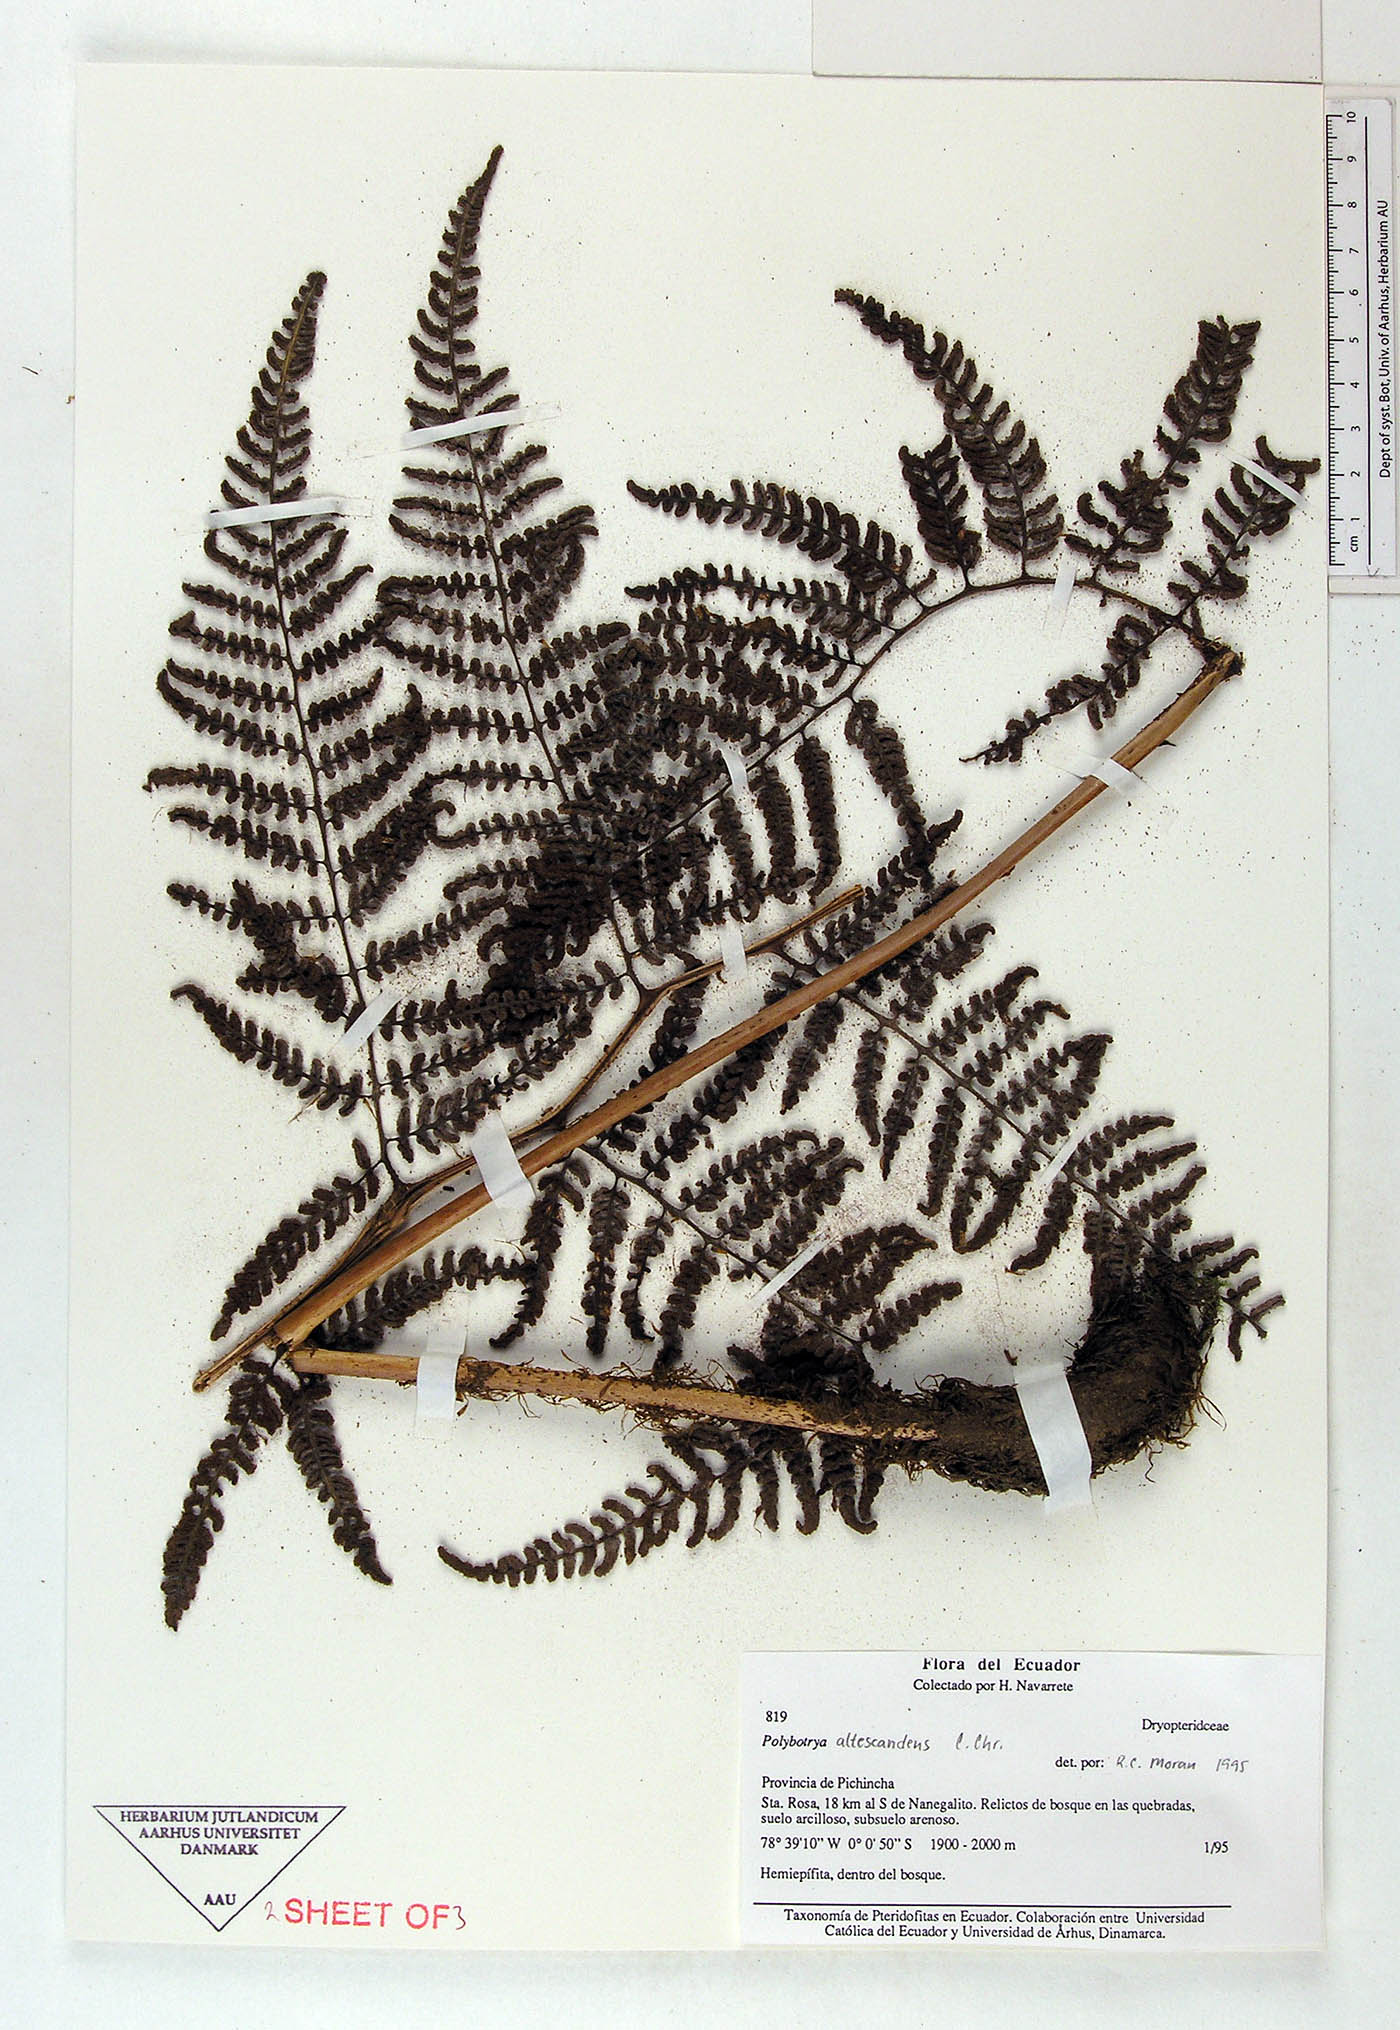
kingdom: Plantae
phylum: Tracheophyta
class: Polypodiopsida
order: Polypodiales
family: Dryopteridaceae
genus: Polybotrya
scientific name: Polybotrya
